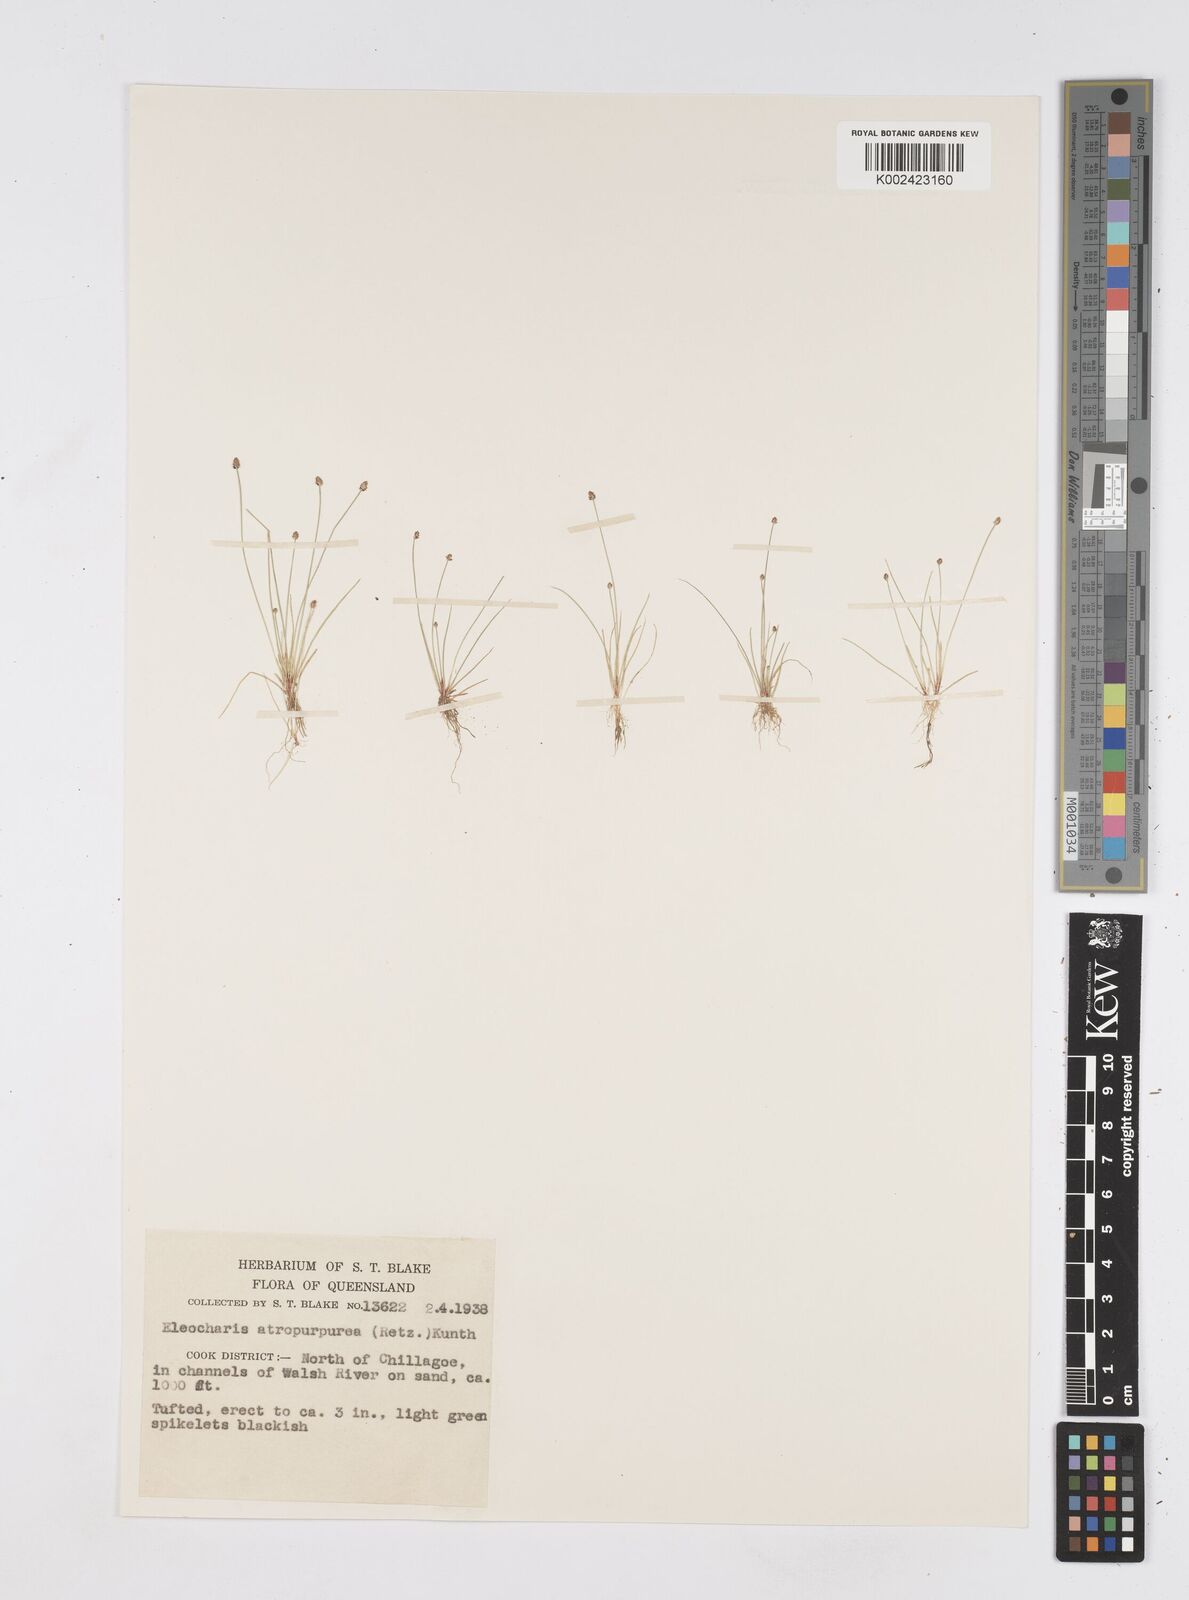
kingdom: Plantae
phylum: Tracheophyta
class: Liliopsida
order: Poales
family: Cyperaceae
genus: Eleocharis
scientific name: Eleocharis atropurpurea
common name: Purple spikerush
